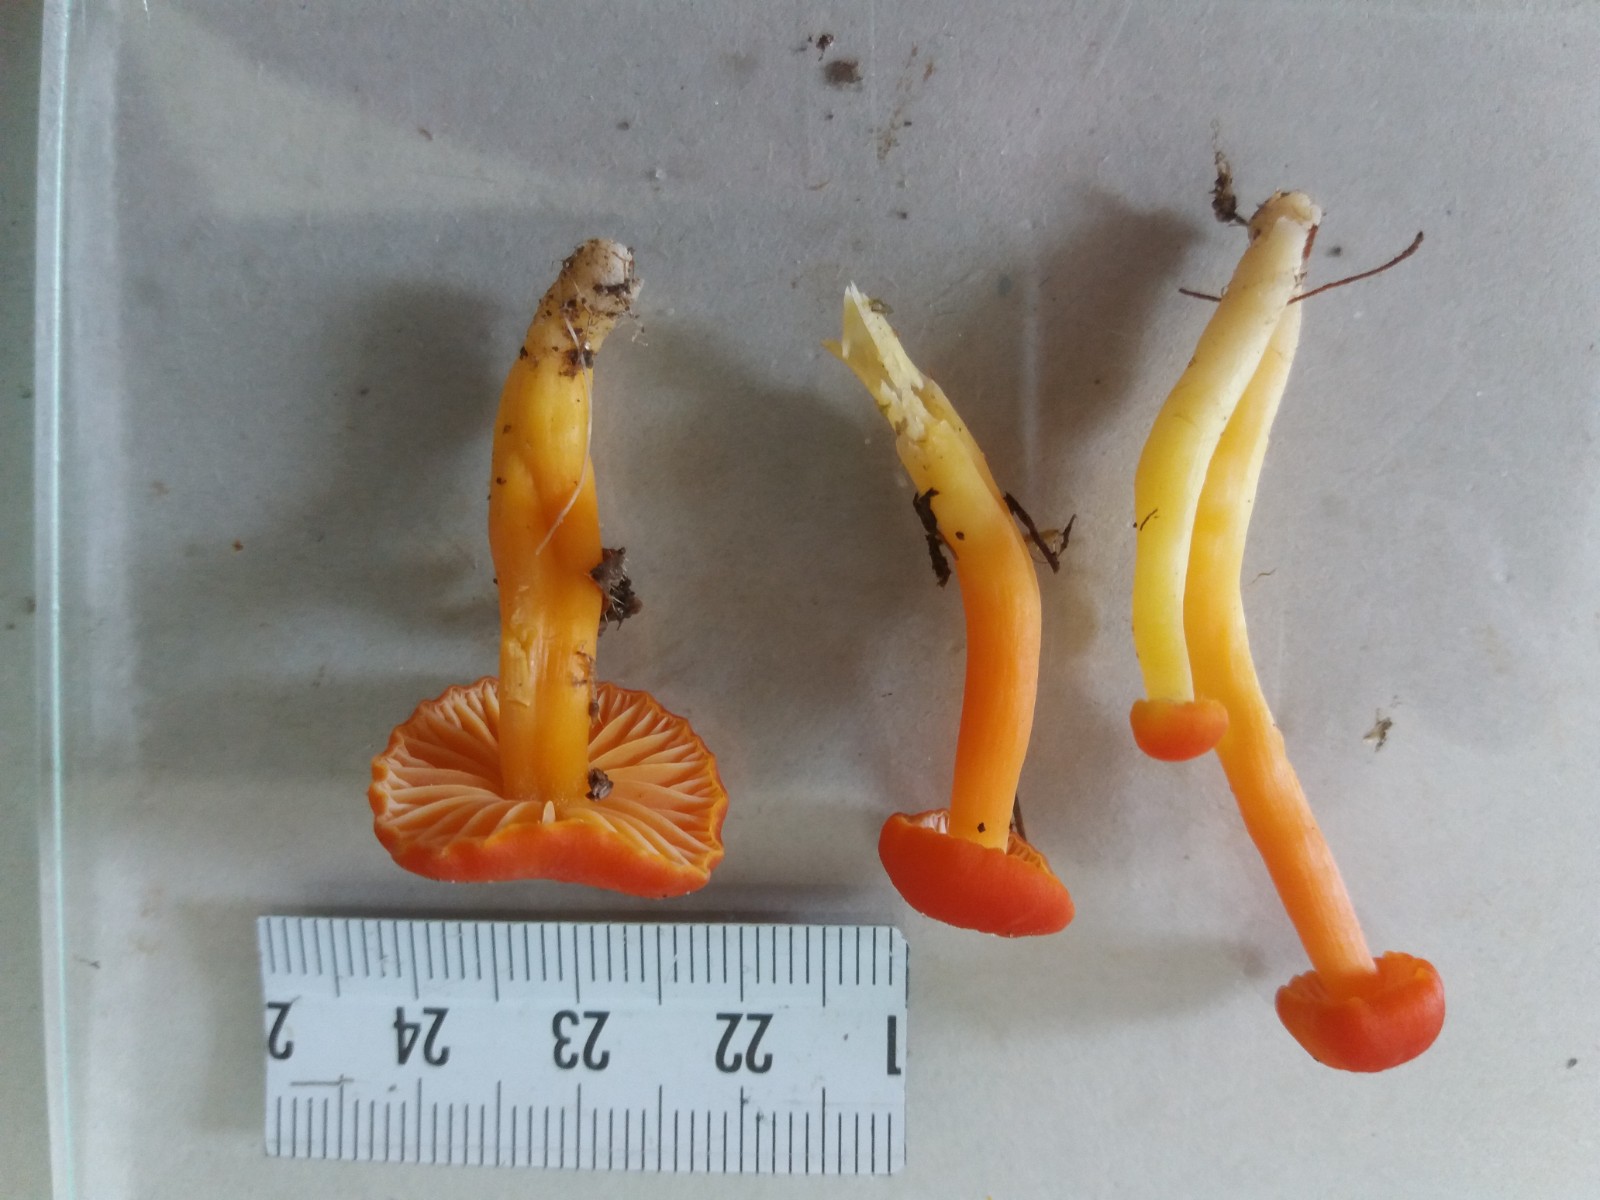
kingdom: Fungi
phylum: Basidiomycota
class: Agaricomycetes
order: Agaricales
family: Hygrophoraceae
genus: Hygrocybe
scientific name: Hygrocybe reidii
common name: honning-vokshat
